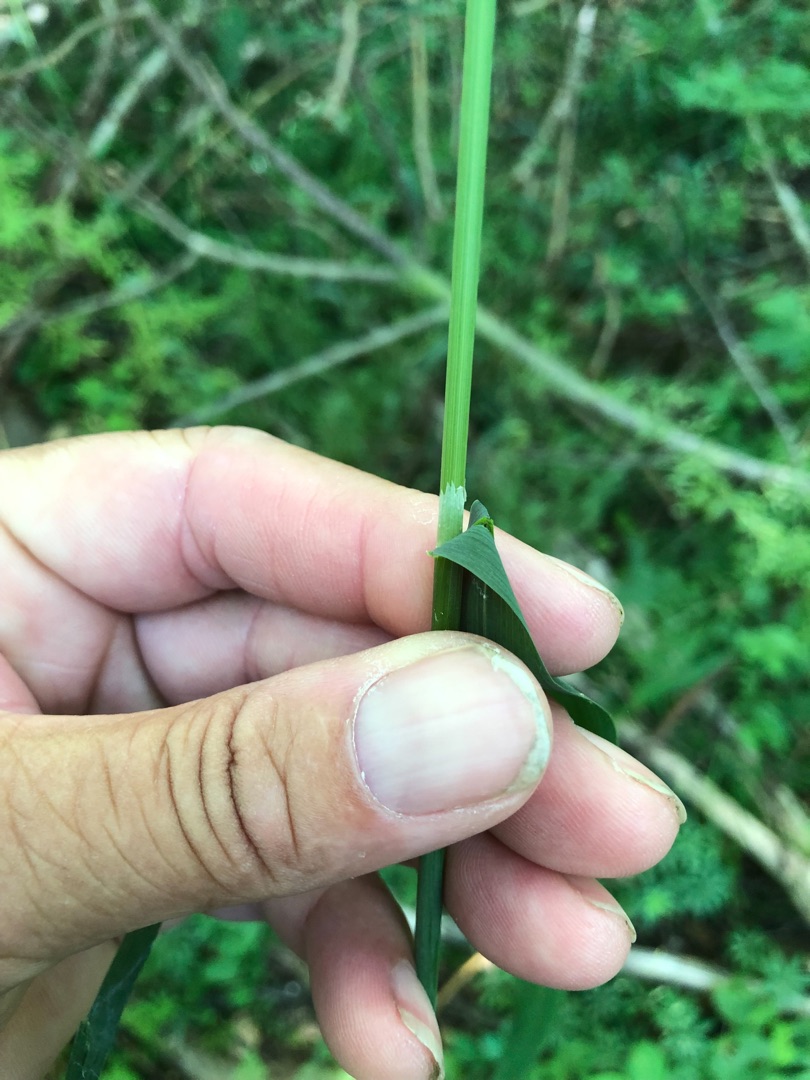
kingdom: Plantae
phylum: Tracheophyta
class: Liliopsida
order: Poales
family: Poaceae
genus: Milium
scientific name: Milium effusum
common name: Miliegræs
